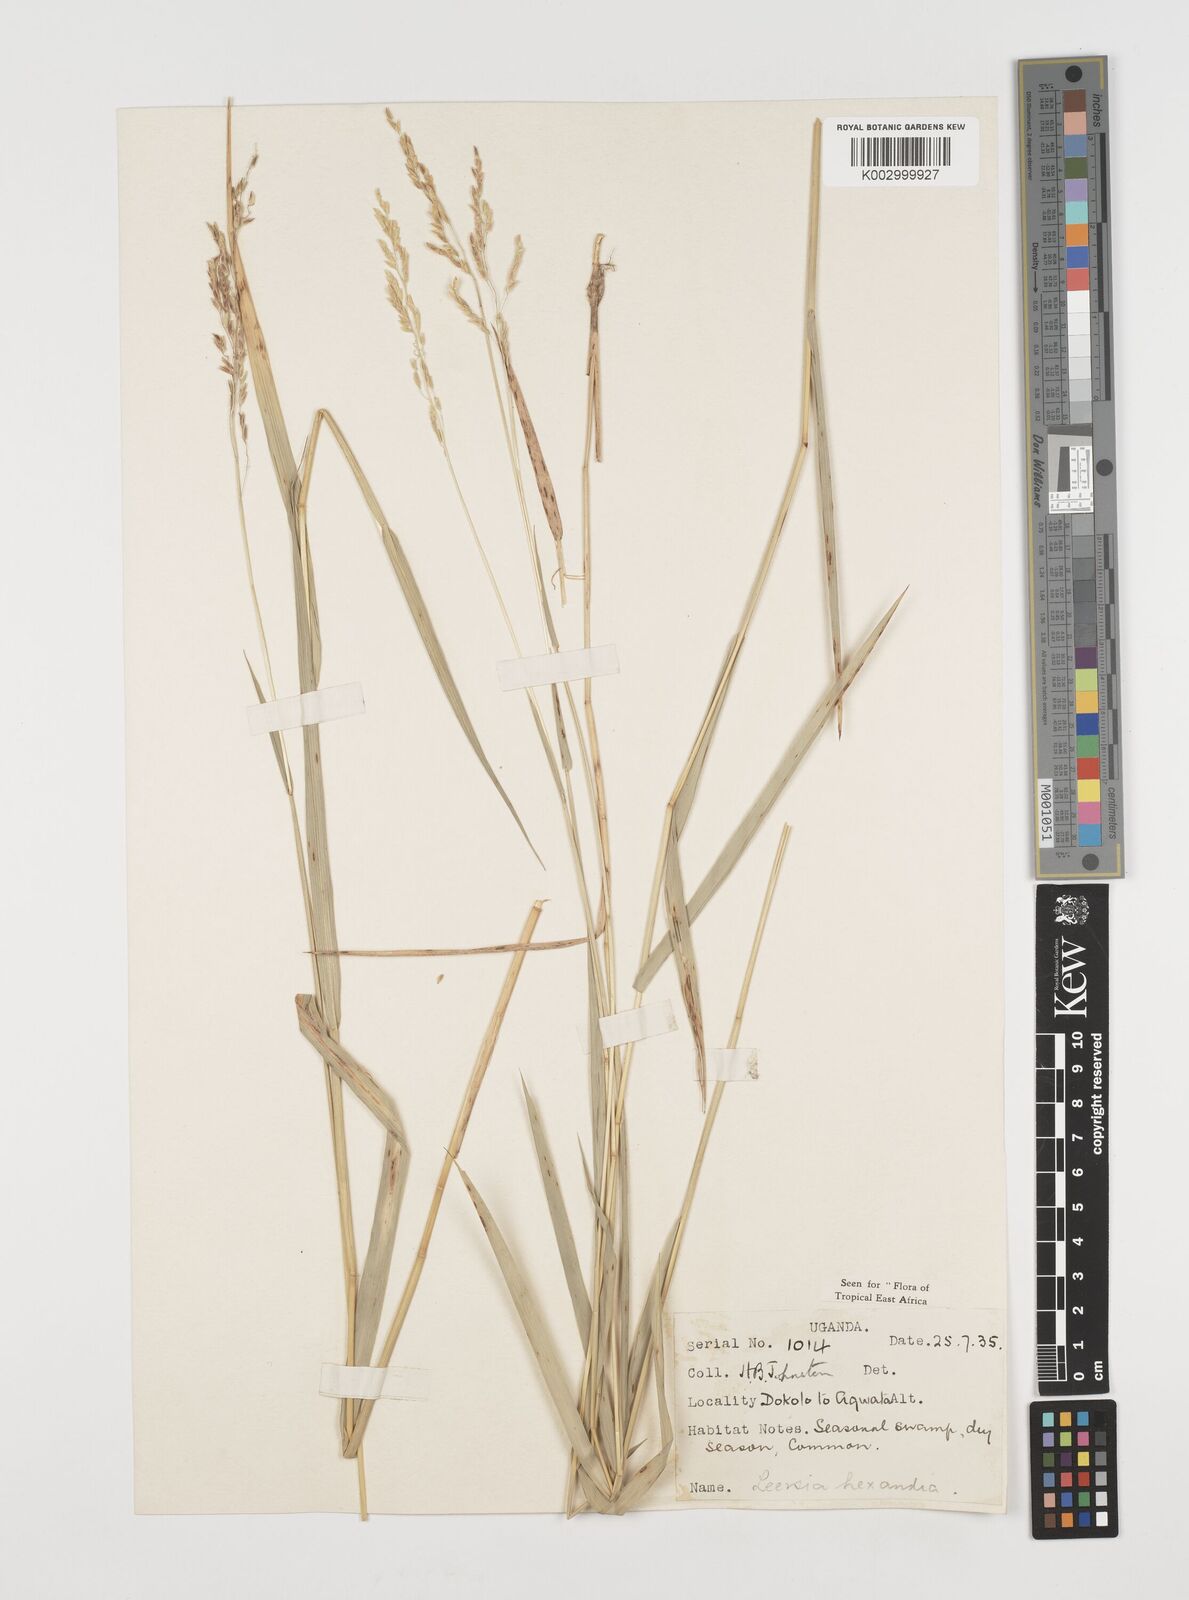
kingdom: Plantae
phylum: Tracheophyta
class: Liliopsida
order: Poales
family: Poaceae
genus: Leersia
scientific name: Leersia hexandra
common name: Southern cut grass
